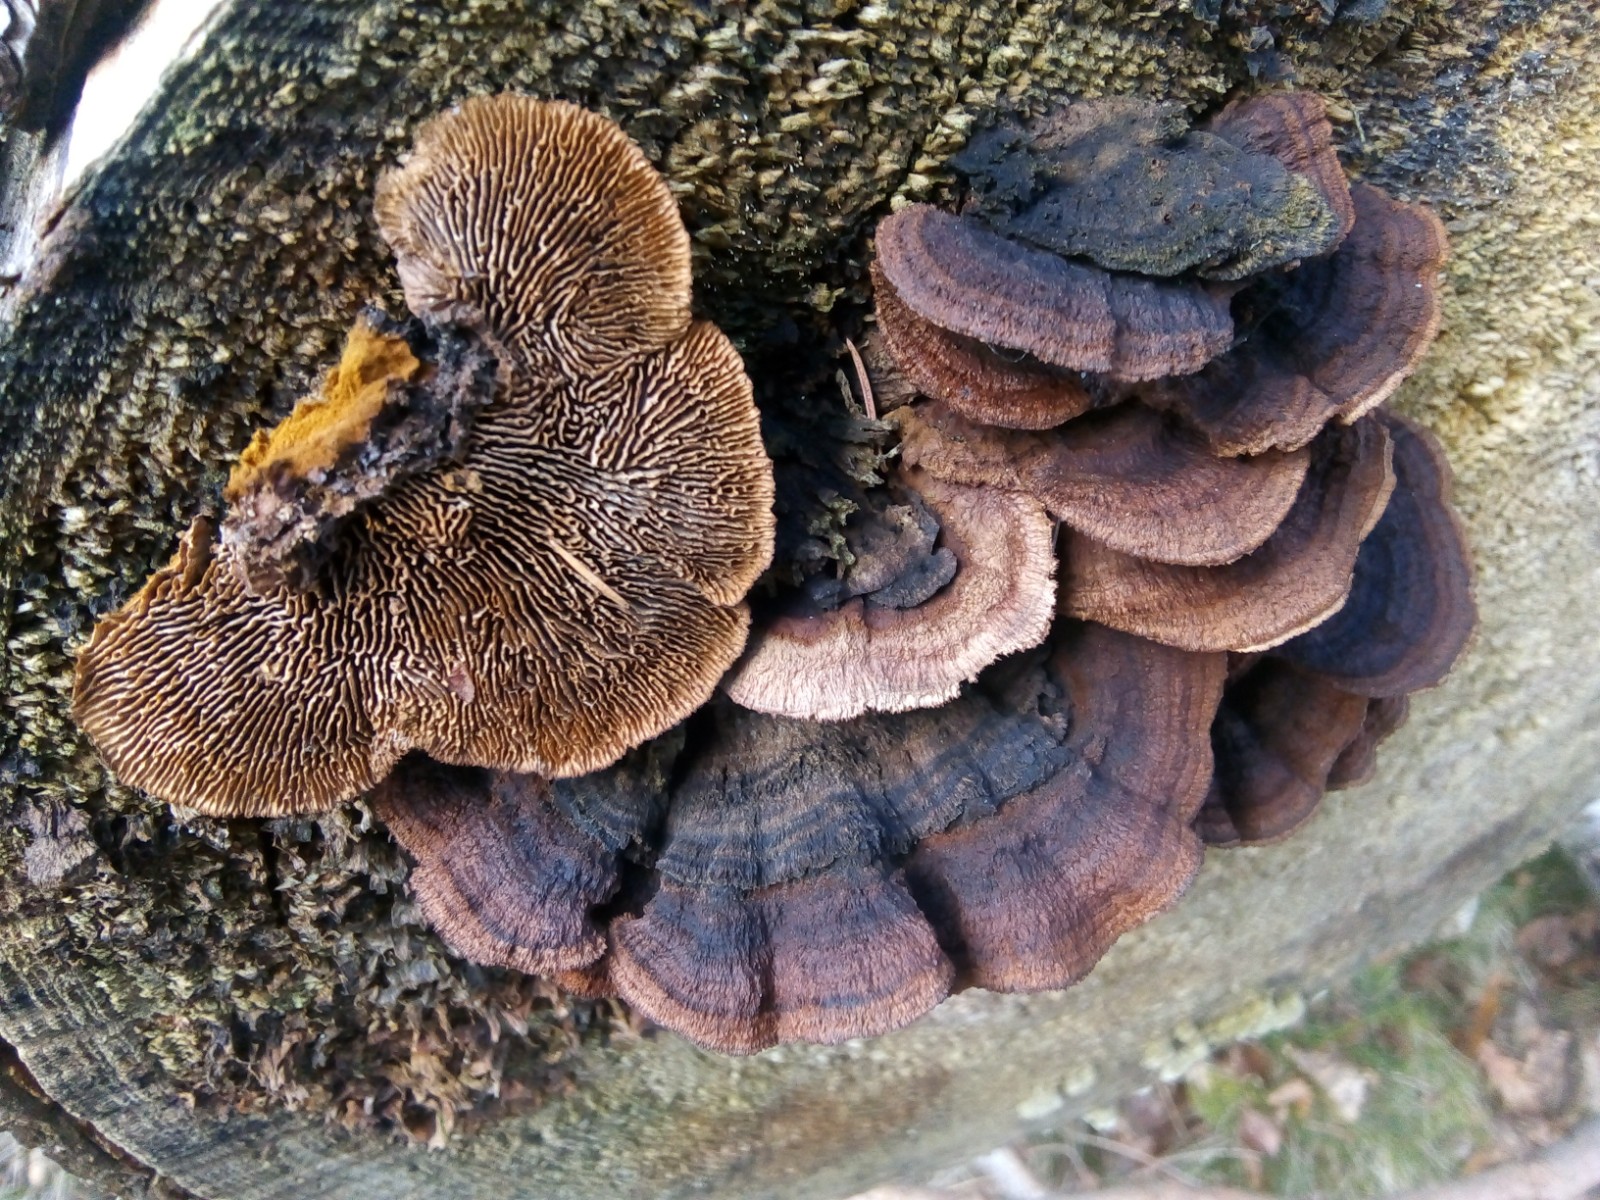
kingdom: Fungi
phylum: Basidiomycota
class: Agaricomycetes
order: Gloeophyllales
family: Gloeophyllaceae
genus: Gloeophyllum
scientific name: Gloeophyllum sepiarium
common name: fyrre-korkhat
